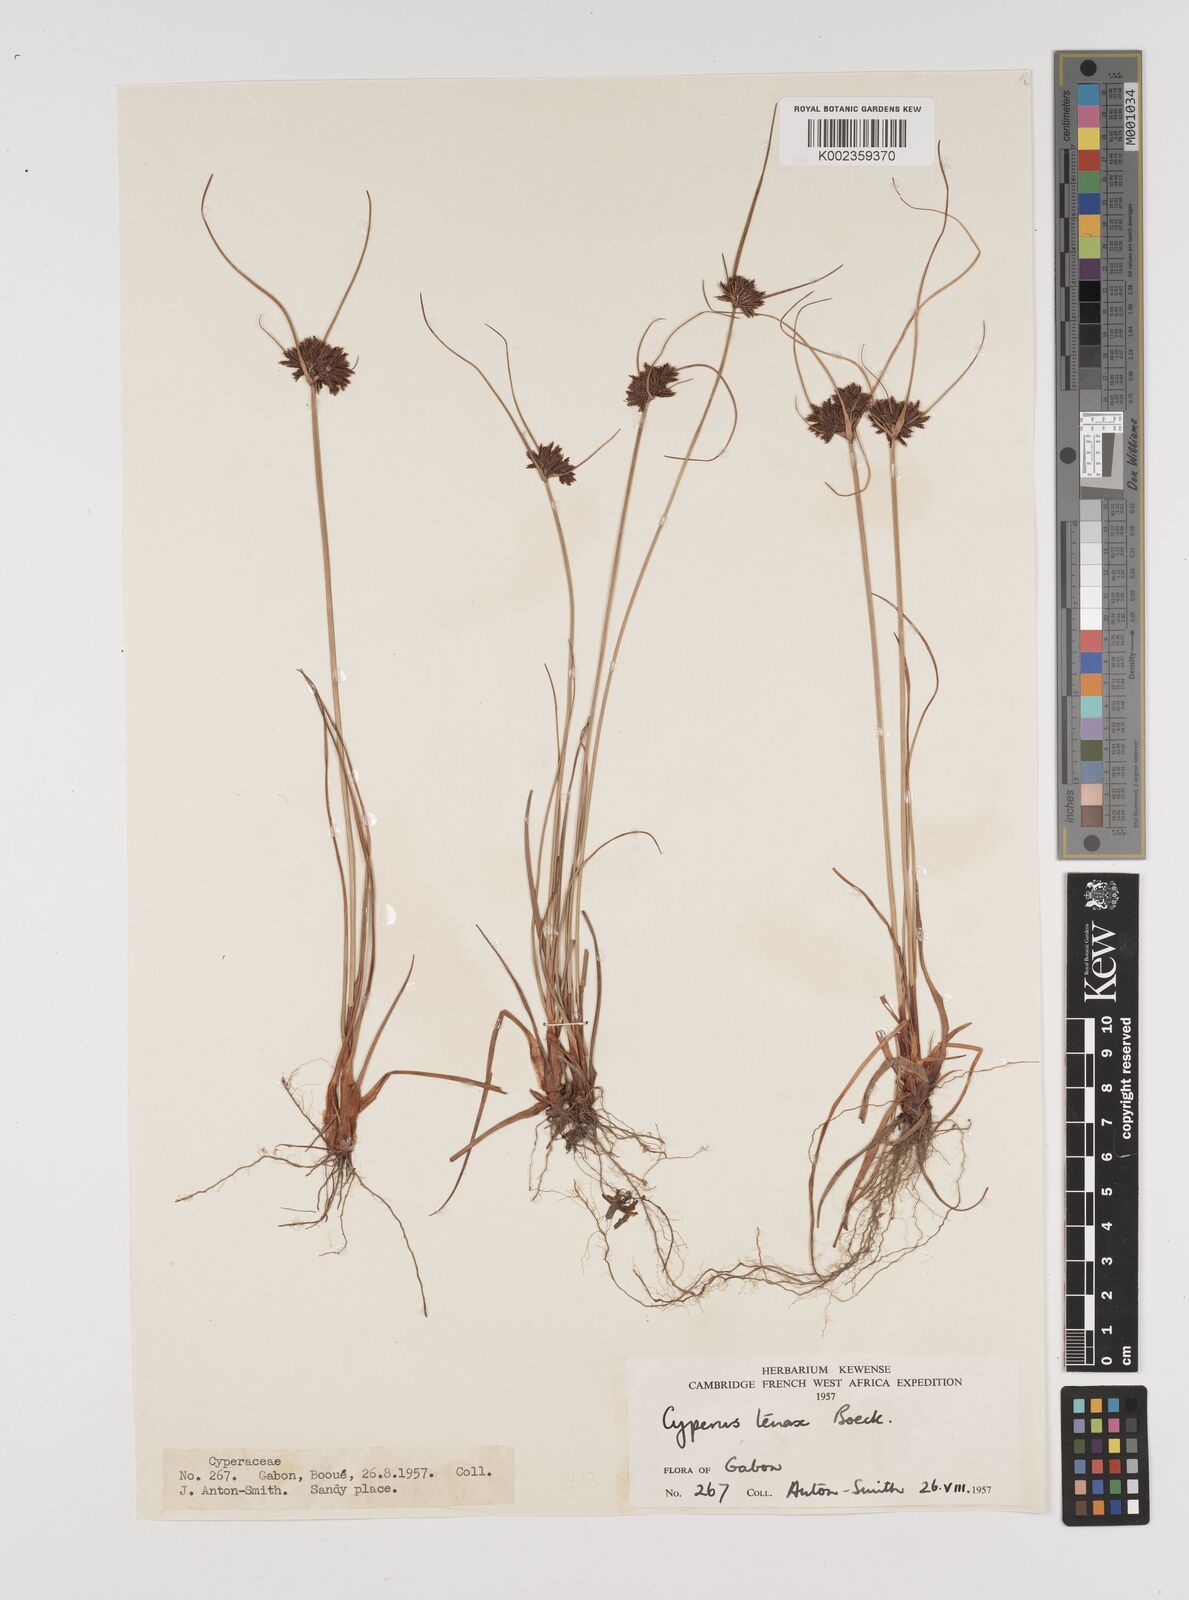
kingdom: Plantae
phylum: Tracheophyta
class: Liliopsida
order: Poales
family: Cyperaceae
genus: Cyperus
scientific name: Cyperus tenax
